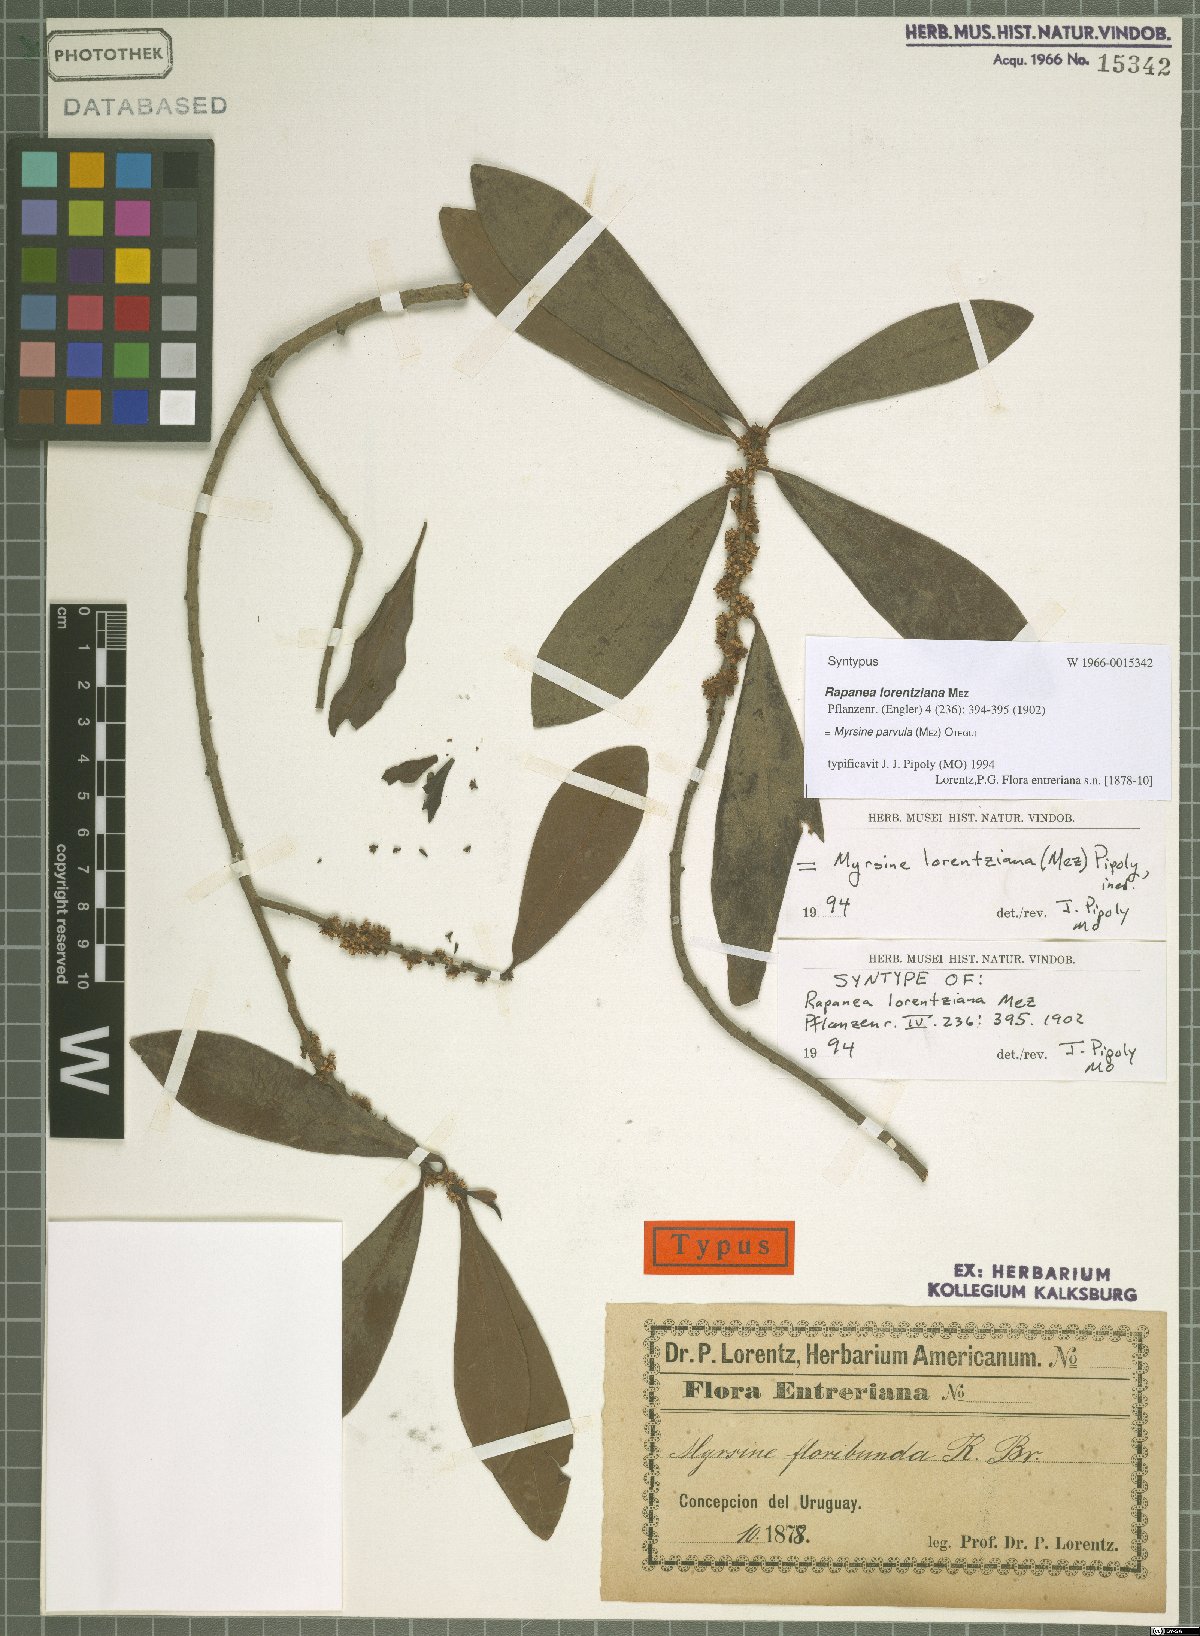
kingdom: Plantae
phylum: Tracheophyta
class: Magnoliopsida
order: Ericales
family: Primulaceae
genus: Myrsine
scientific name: Myrsine lorentziana
